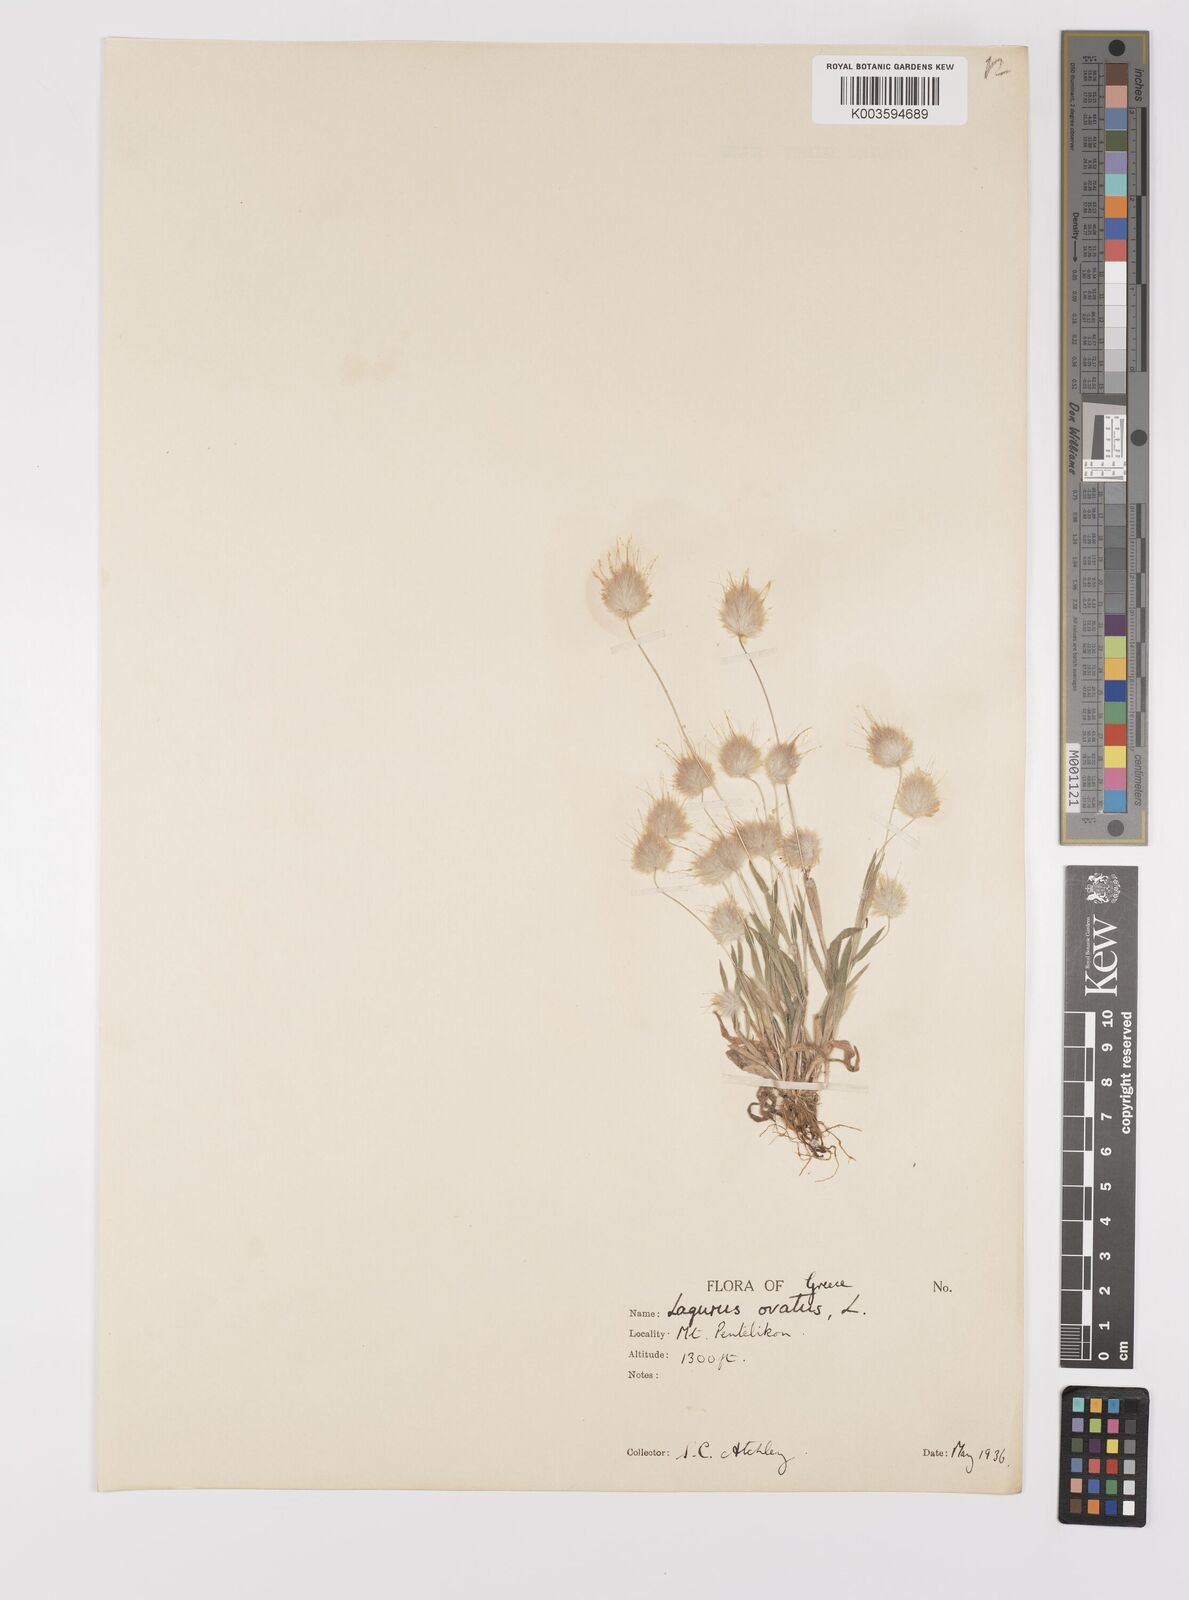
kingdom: Plantae
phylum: Tracheophyta
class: Liliopsida
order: Poales
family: Poaceae
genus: Lagurus
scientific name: Lagurus ovatus
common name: Hare's-tail
